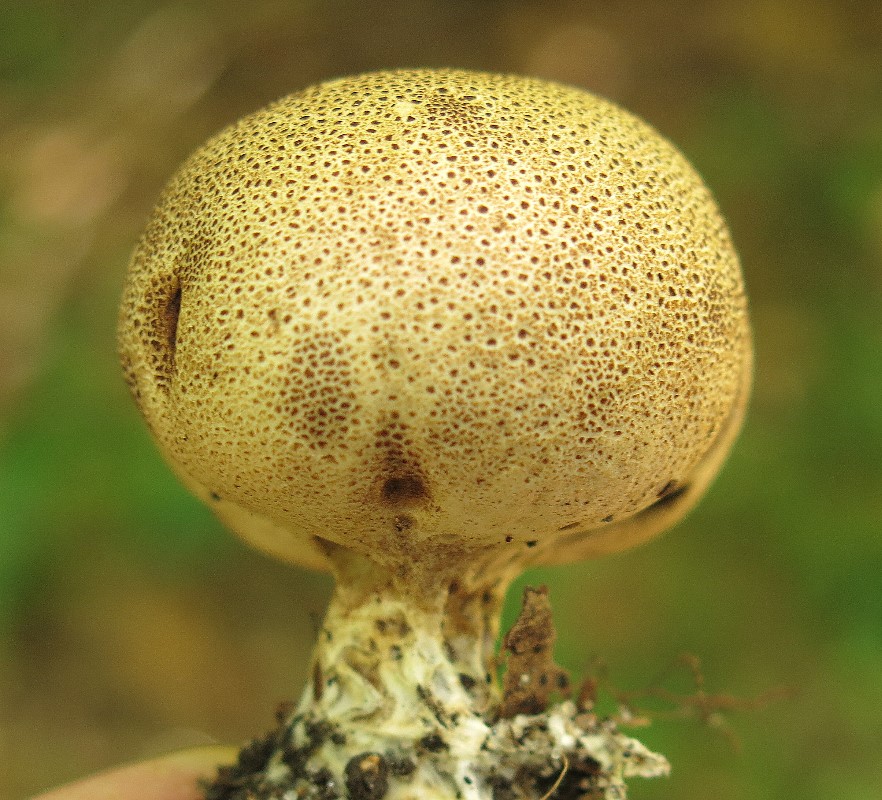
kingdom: Fungi
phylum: Basidiomycota
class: Agaricomycetes
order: Boletales
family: Sclerodermataceae
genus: Scleroderma
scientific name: Scleroderma verrucosum
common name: stilket bruskbold
